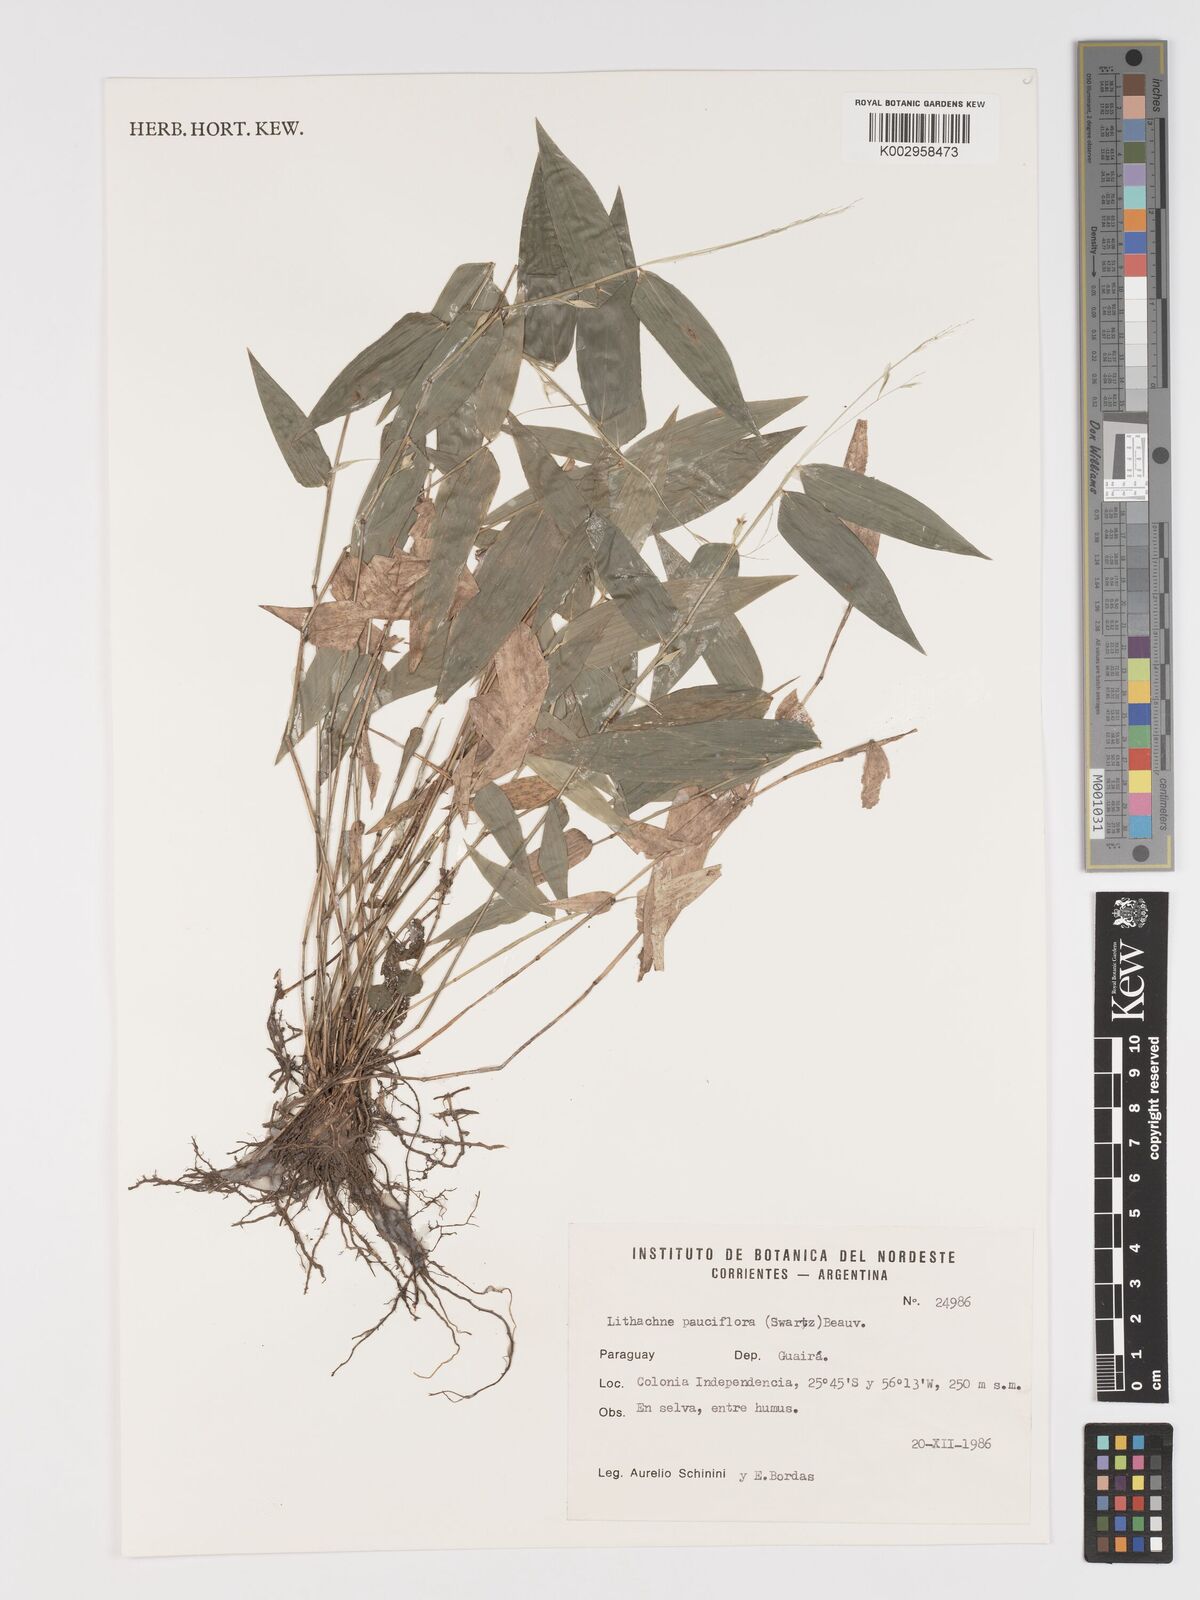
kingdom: Plantae
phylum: Tracheophyta
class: Liliopsida
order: Poales
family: Poaceae
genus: Lithachne
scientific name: Lithachne pauciflora
